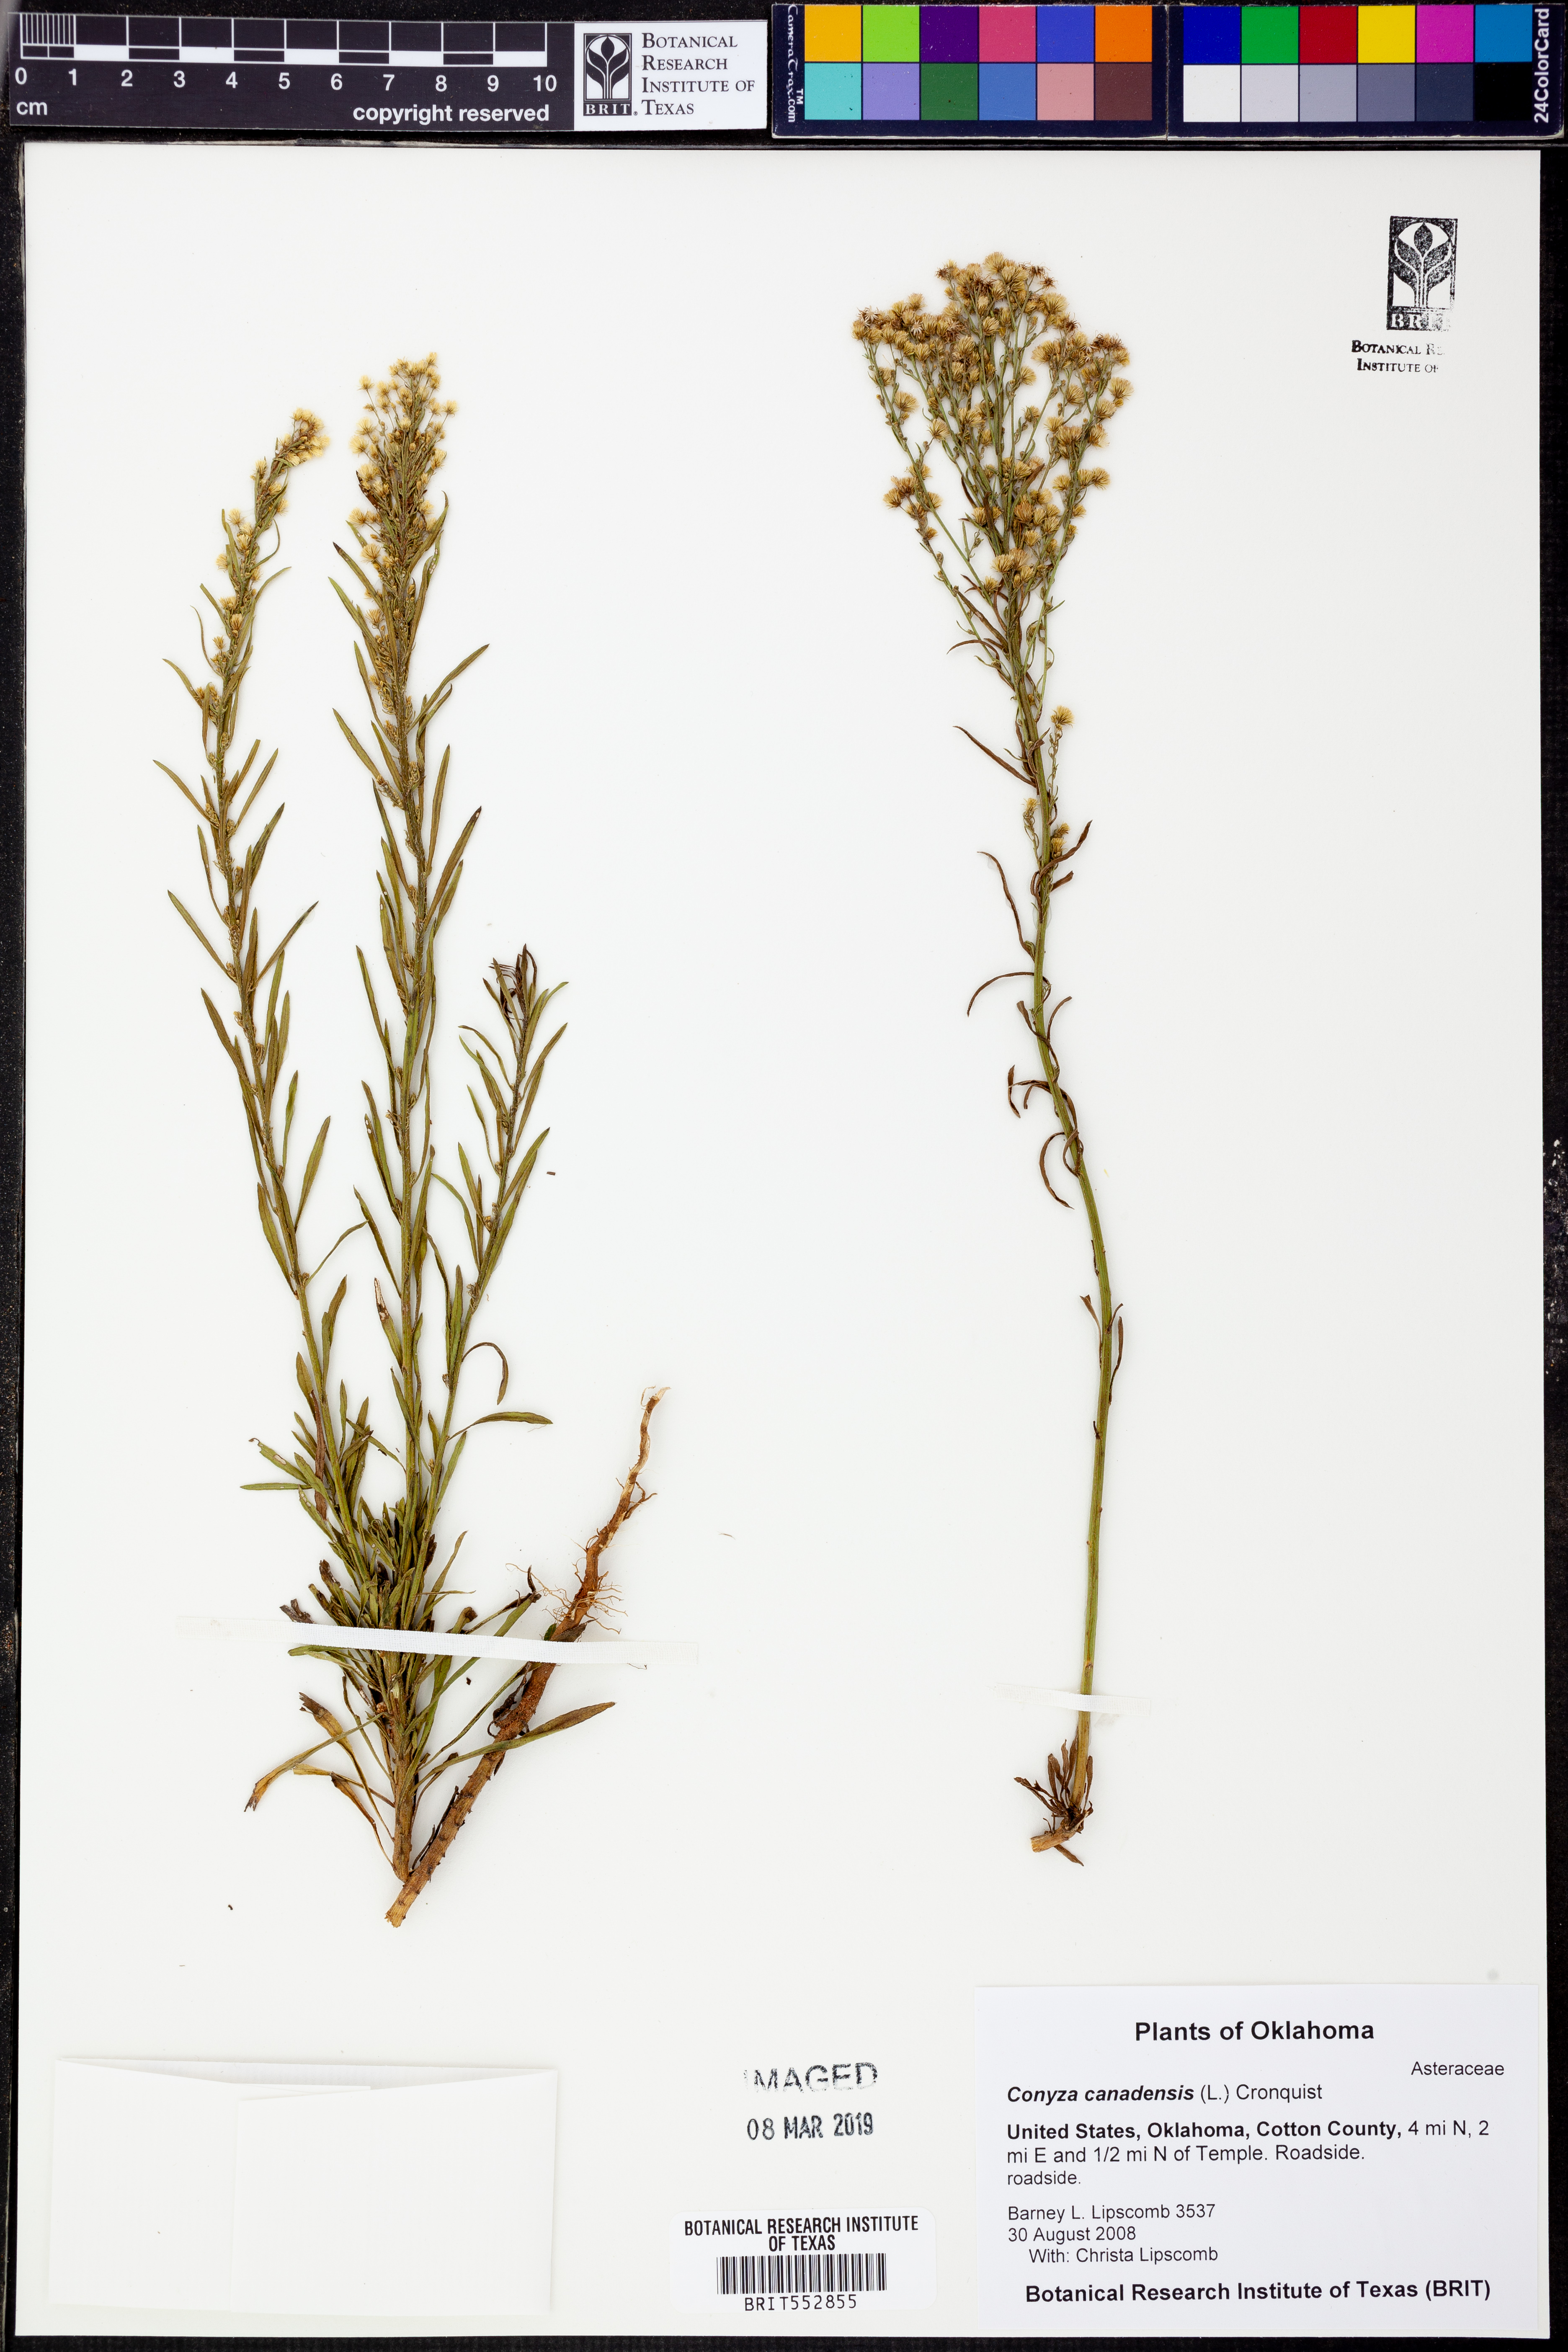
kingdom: Plantae
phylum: Tracheophyta
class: Magnoliopsida
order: Asterales
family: Asteraceae
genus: Erigeron
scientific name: Erigeron canadensis
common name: Canadian fleabane
